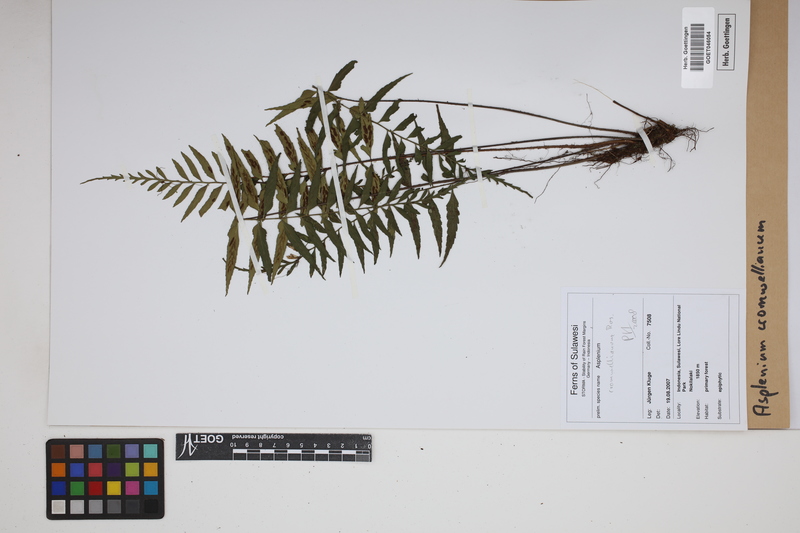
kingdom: Plantae
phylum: Tracheophyta
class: Polypodiopsida
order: Polypodiales
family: Aspleniaceae
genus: Asplenium
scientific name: Asplenium lobulatum
